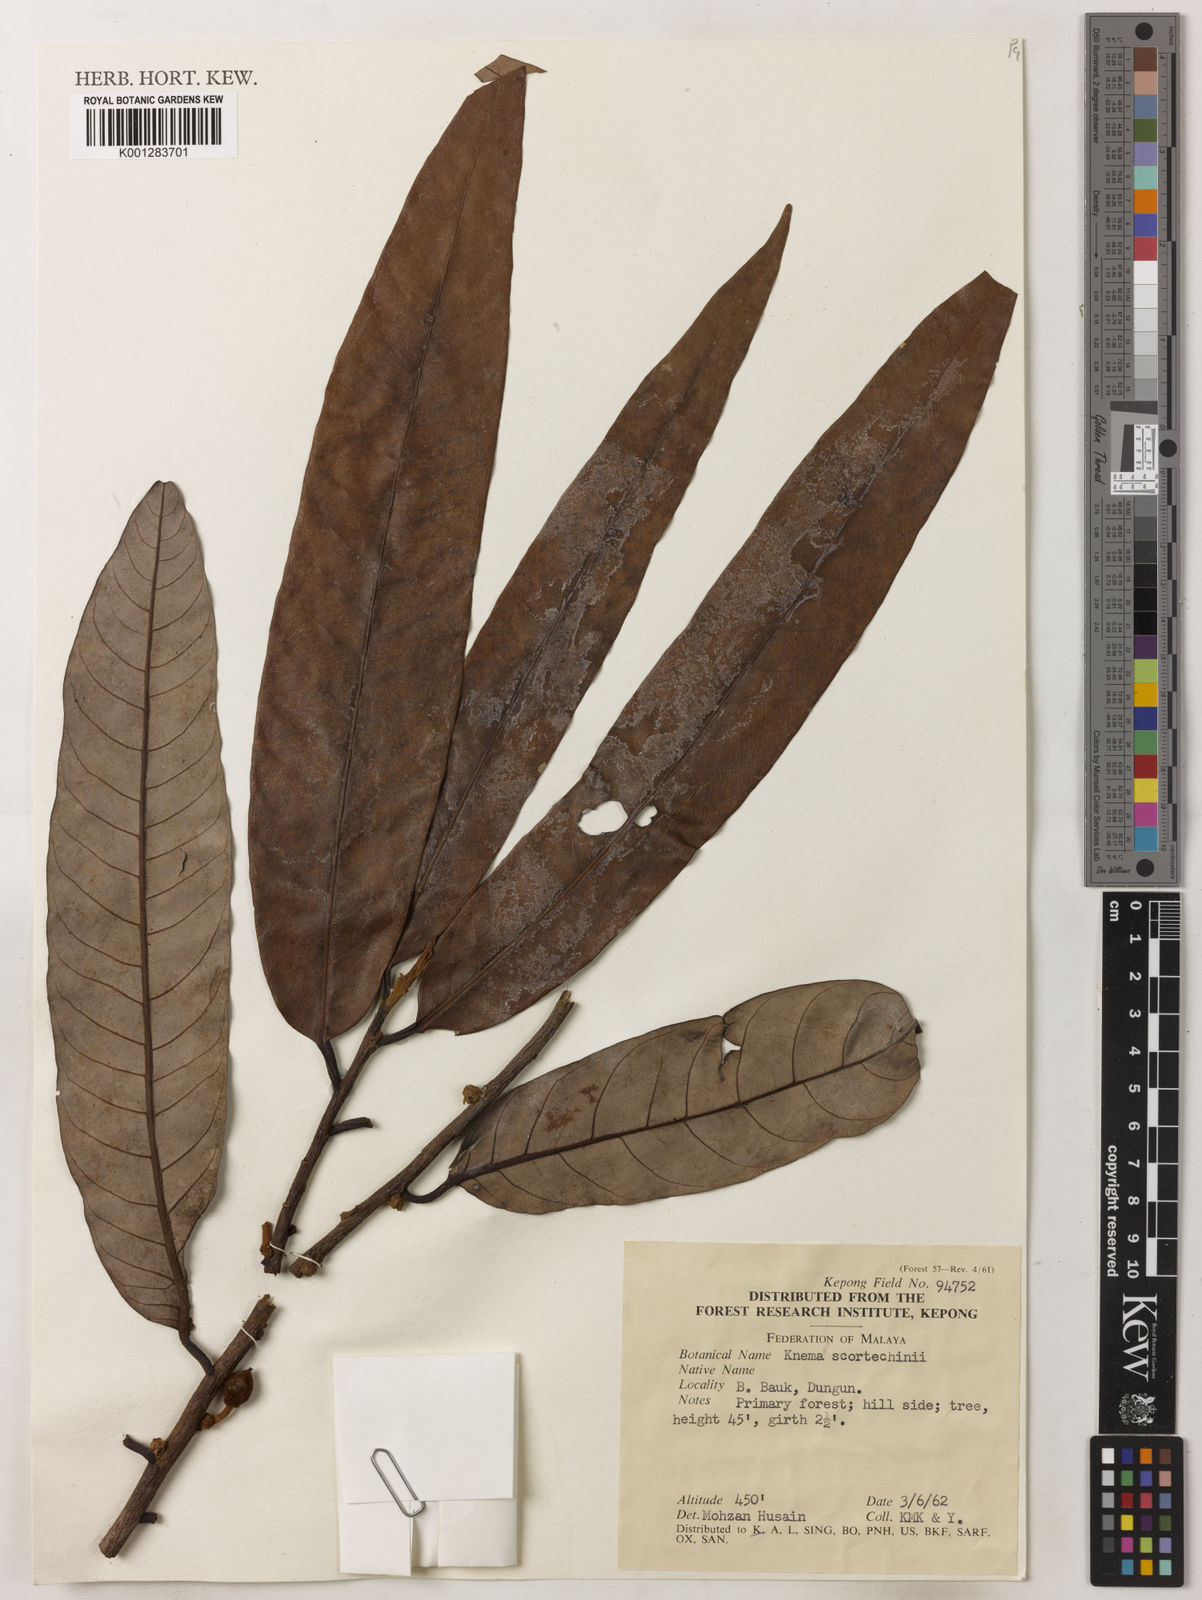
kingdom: Plantae
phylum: Tracheophyta
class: Magnoliopsida
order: Magnoliales
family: Myristicaceae
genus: Knema
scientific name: Knema scortechinii
